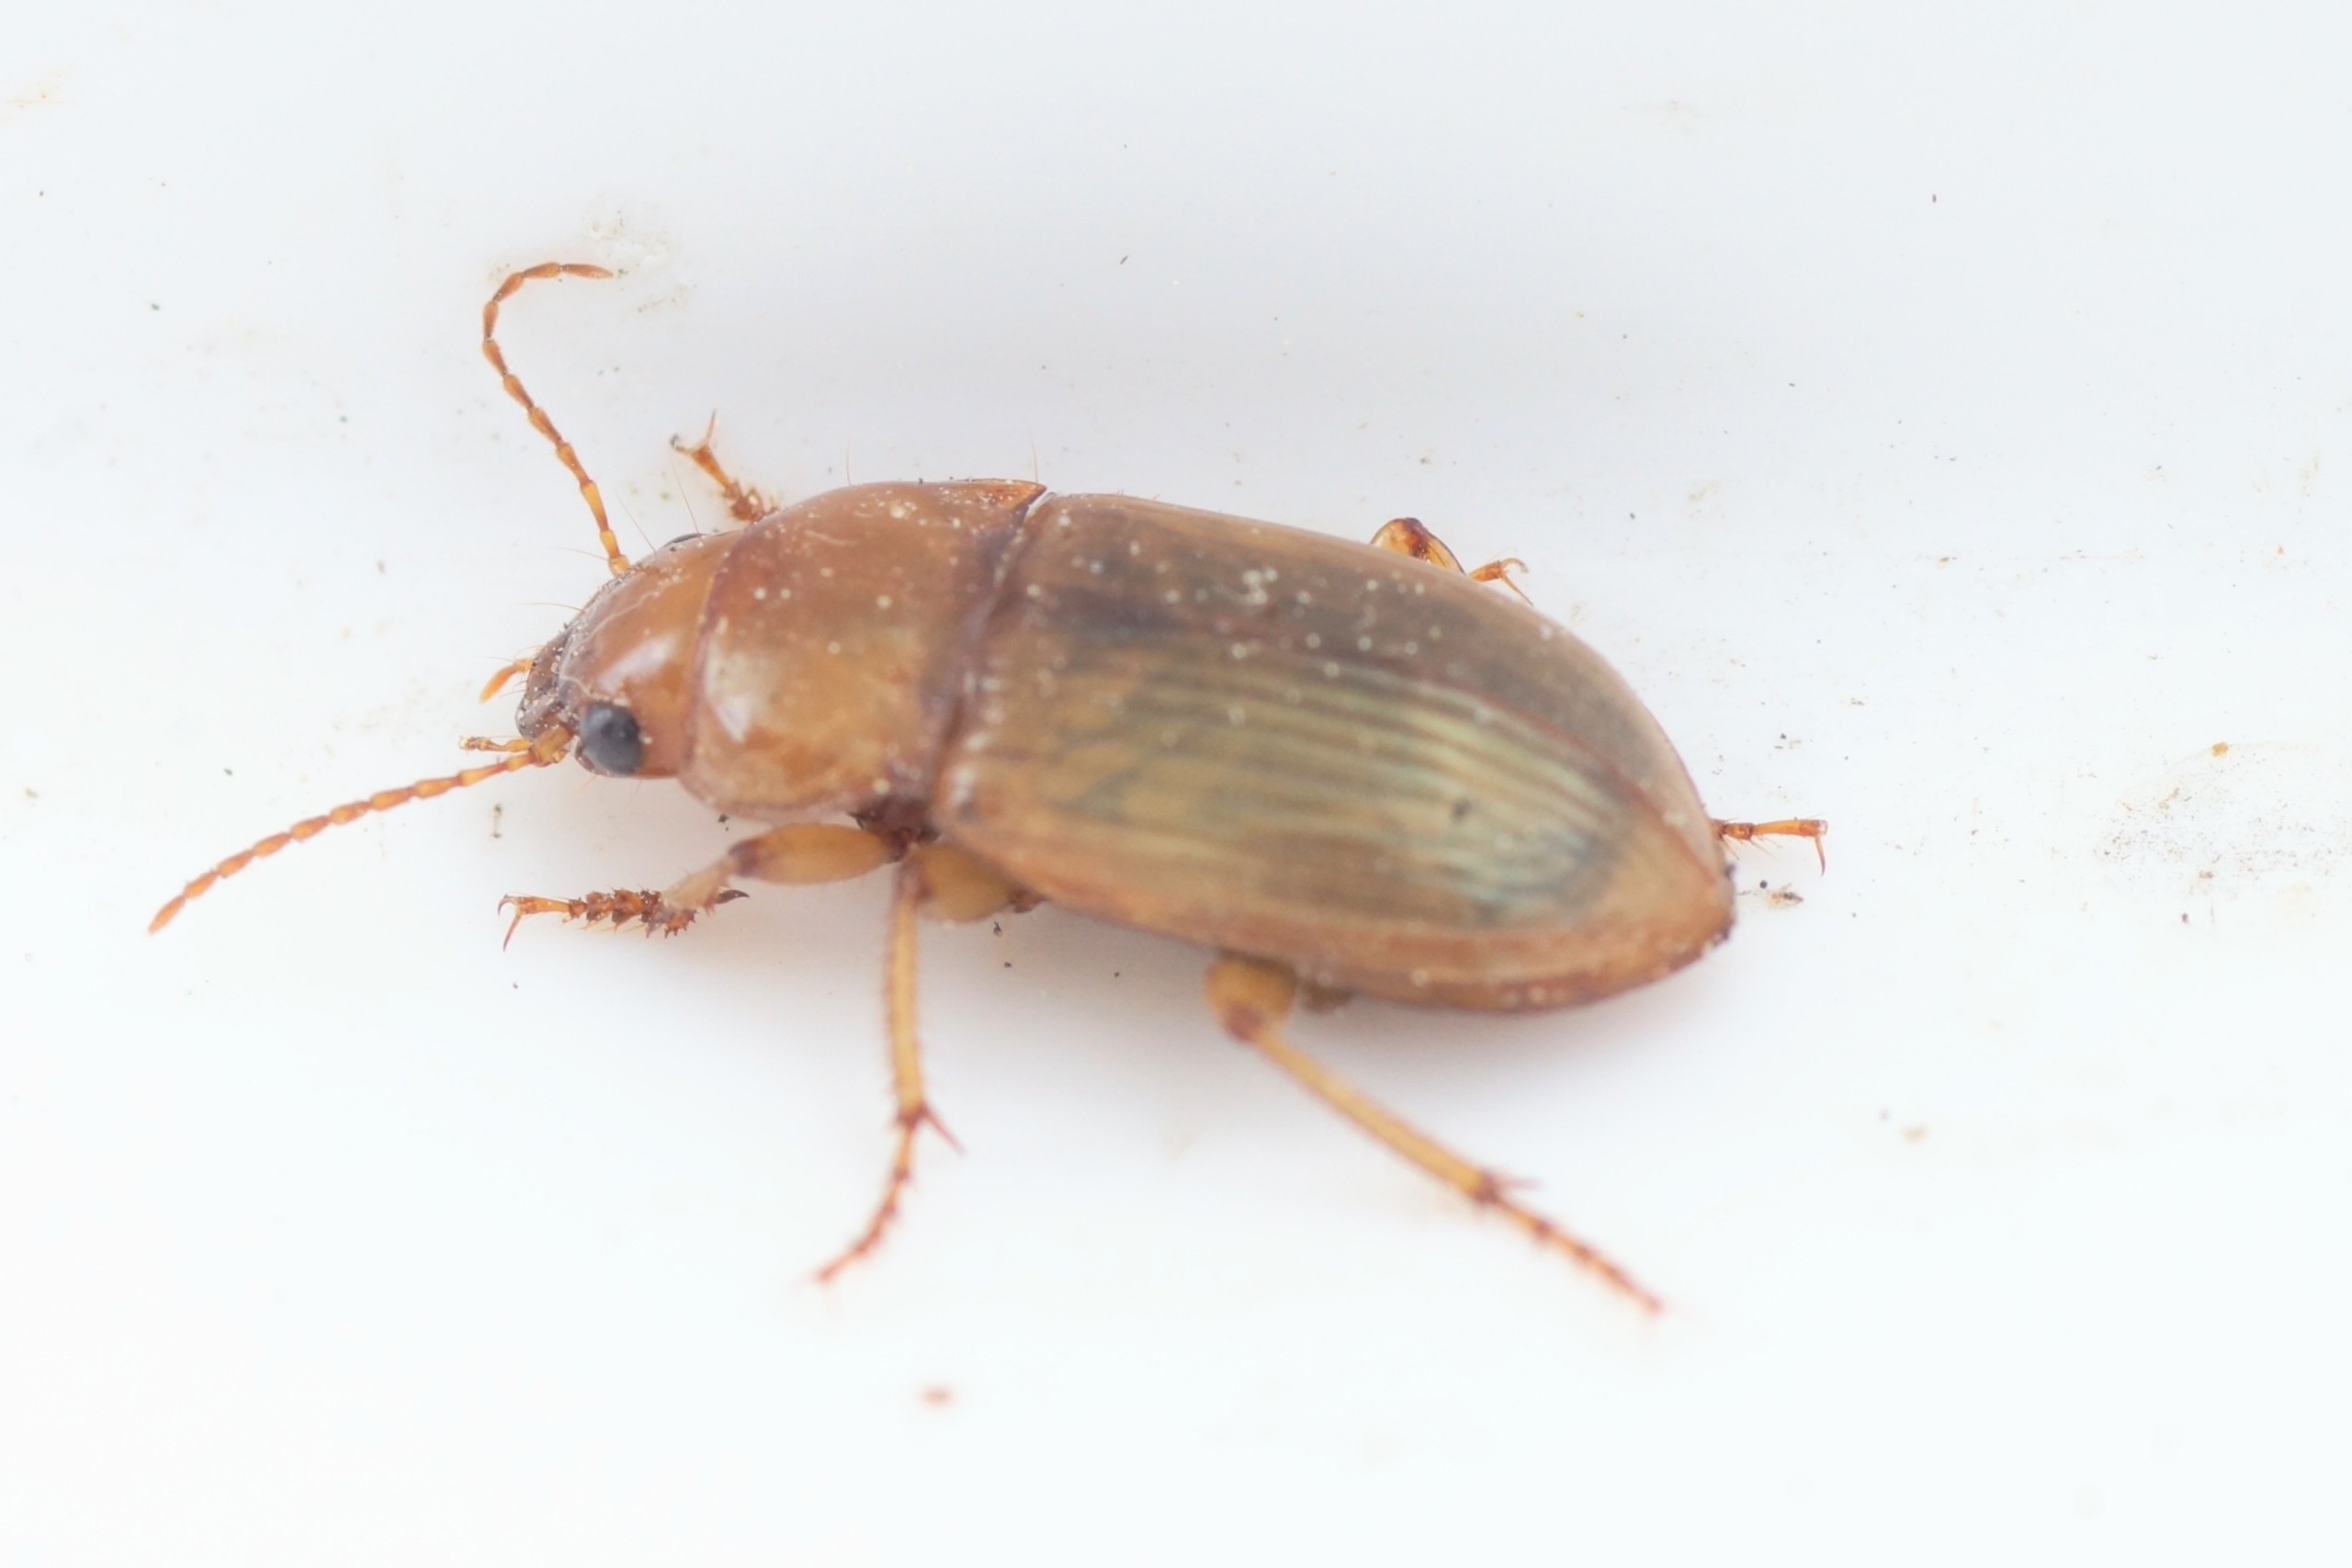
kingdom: Animalia
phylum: Arthropoda
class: Insecta
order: Coleoptera
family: Carabidae
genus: Amara
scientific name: Amara fulva
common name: Gulbrun ovalløber
